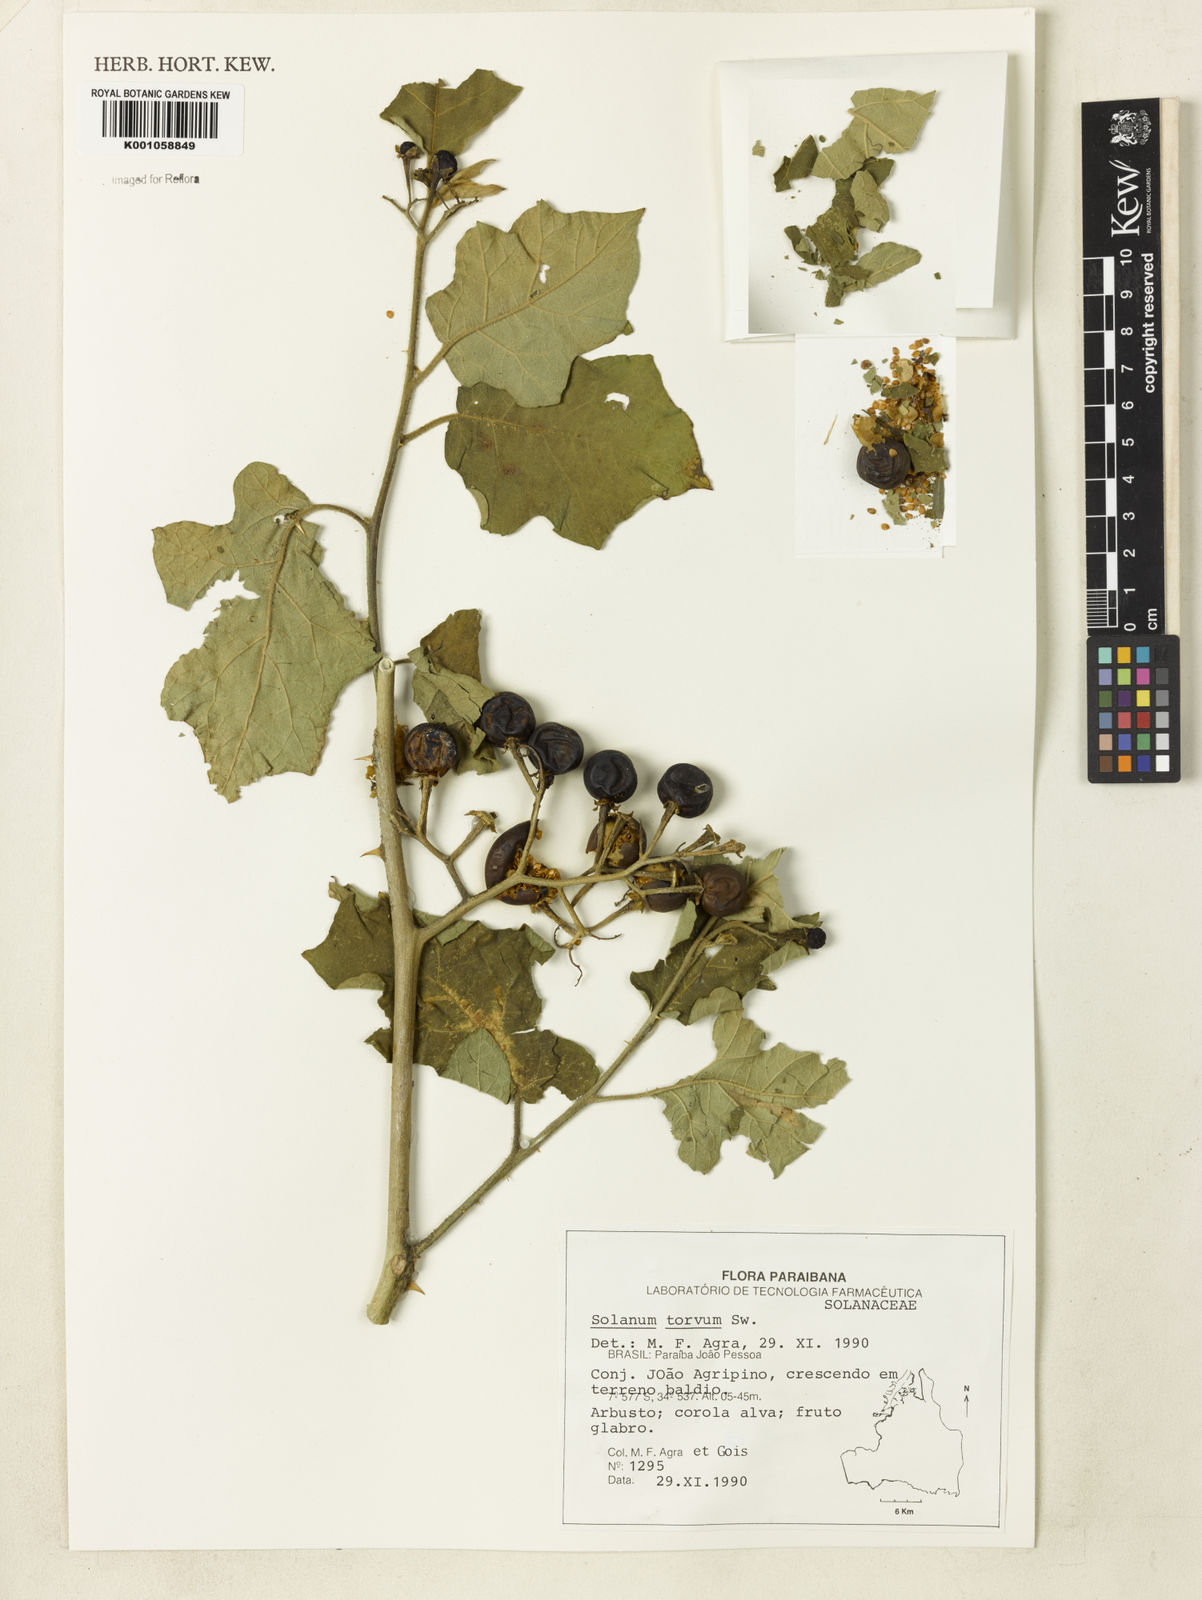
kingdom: Plantae
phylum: Tracheophyta
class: Magnoliopsida
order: Solanales
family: Solanaceae
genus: Solanum
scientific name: Solanum torvum
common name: Turkey berry
